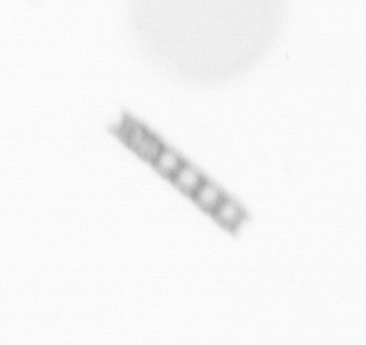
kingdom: Chromista
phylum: Ochrophyta
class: Bacillariophyceae
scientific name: Bacillariophyceae
